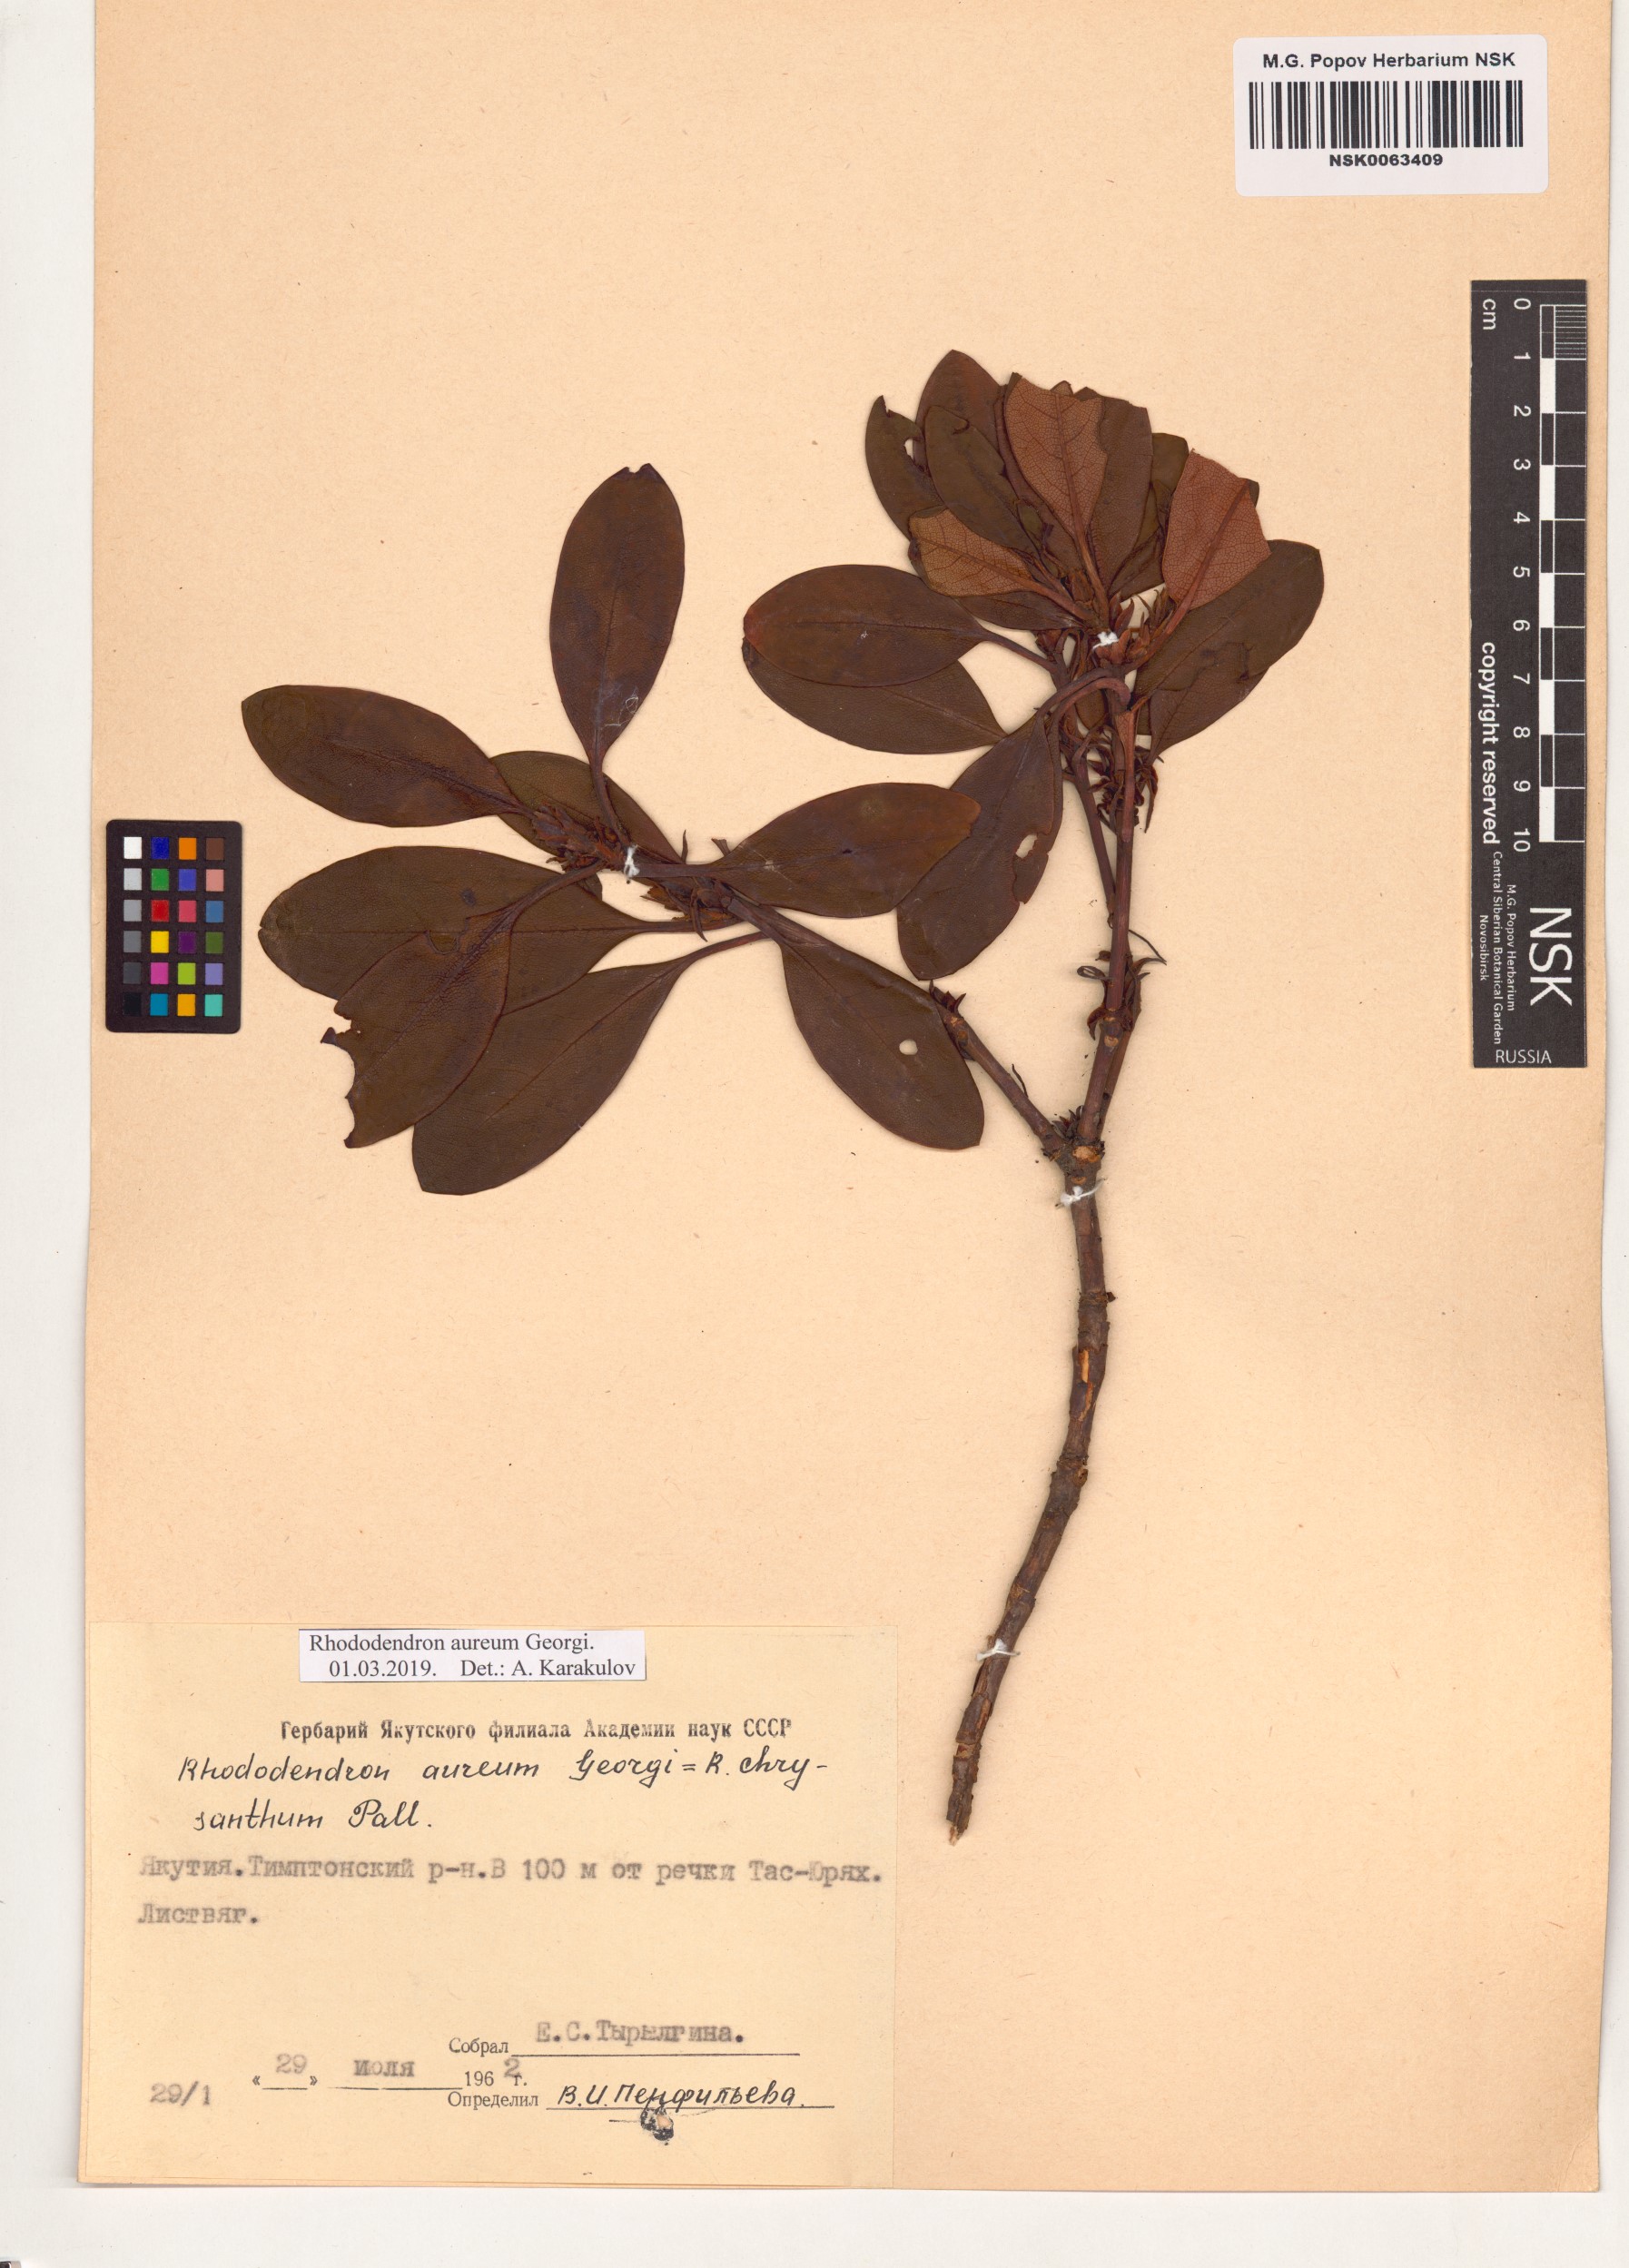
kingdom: Plantae
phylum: Tracheophyta
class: Magnoliopsida
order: Ericales
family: Ericaceae
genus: Rhododendron
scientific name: Rhododendron aureum
